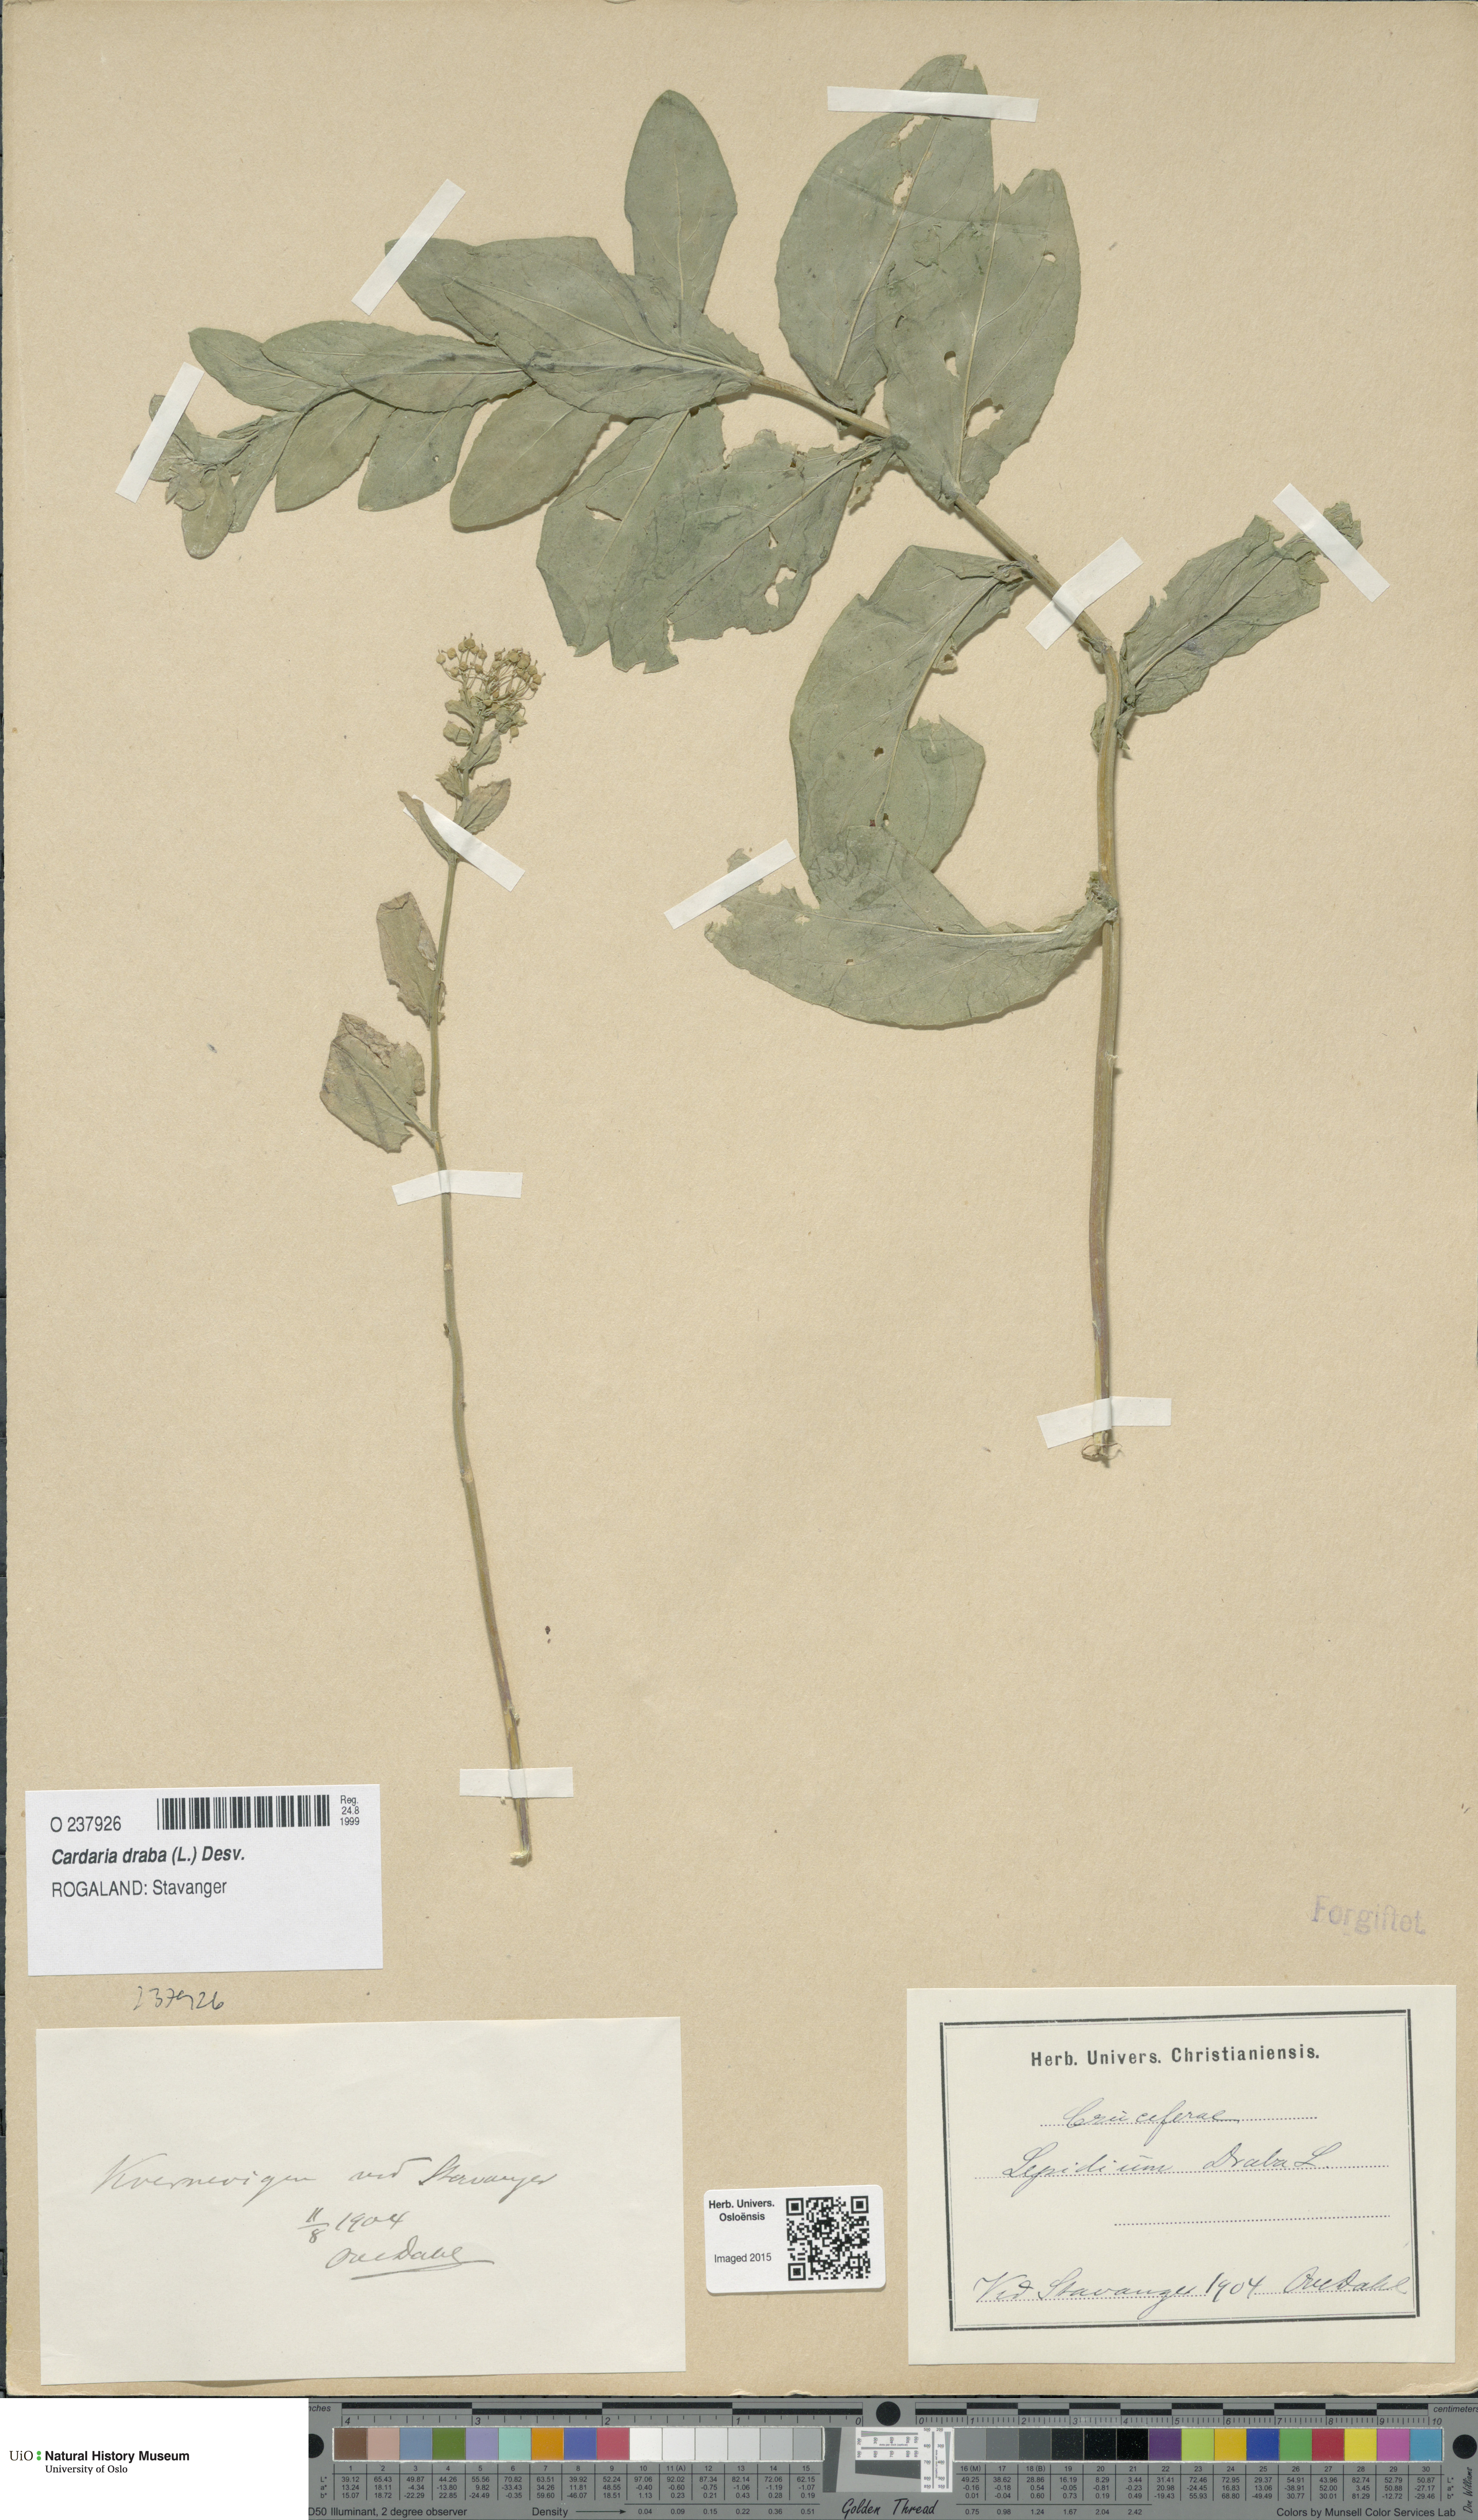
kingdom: Plantae
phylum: Tracheophyta
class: Magnoliopsida
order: Brassicales
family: Brassicaceae
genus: Lepidium
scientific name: Lepidium draba
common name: Hoary cress
